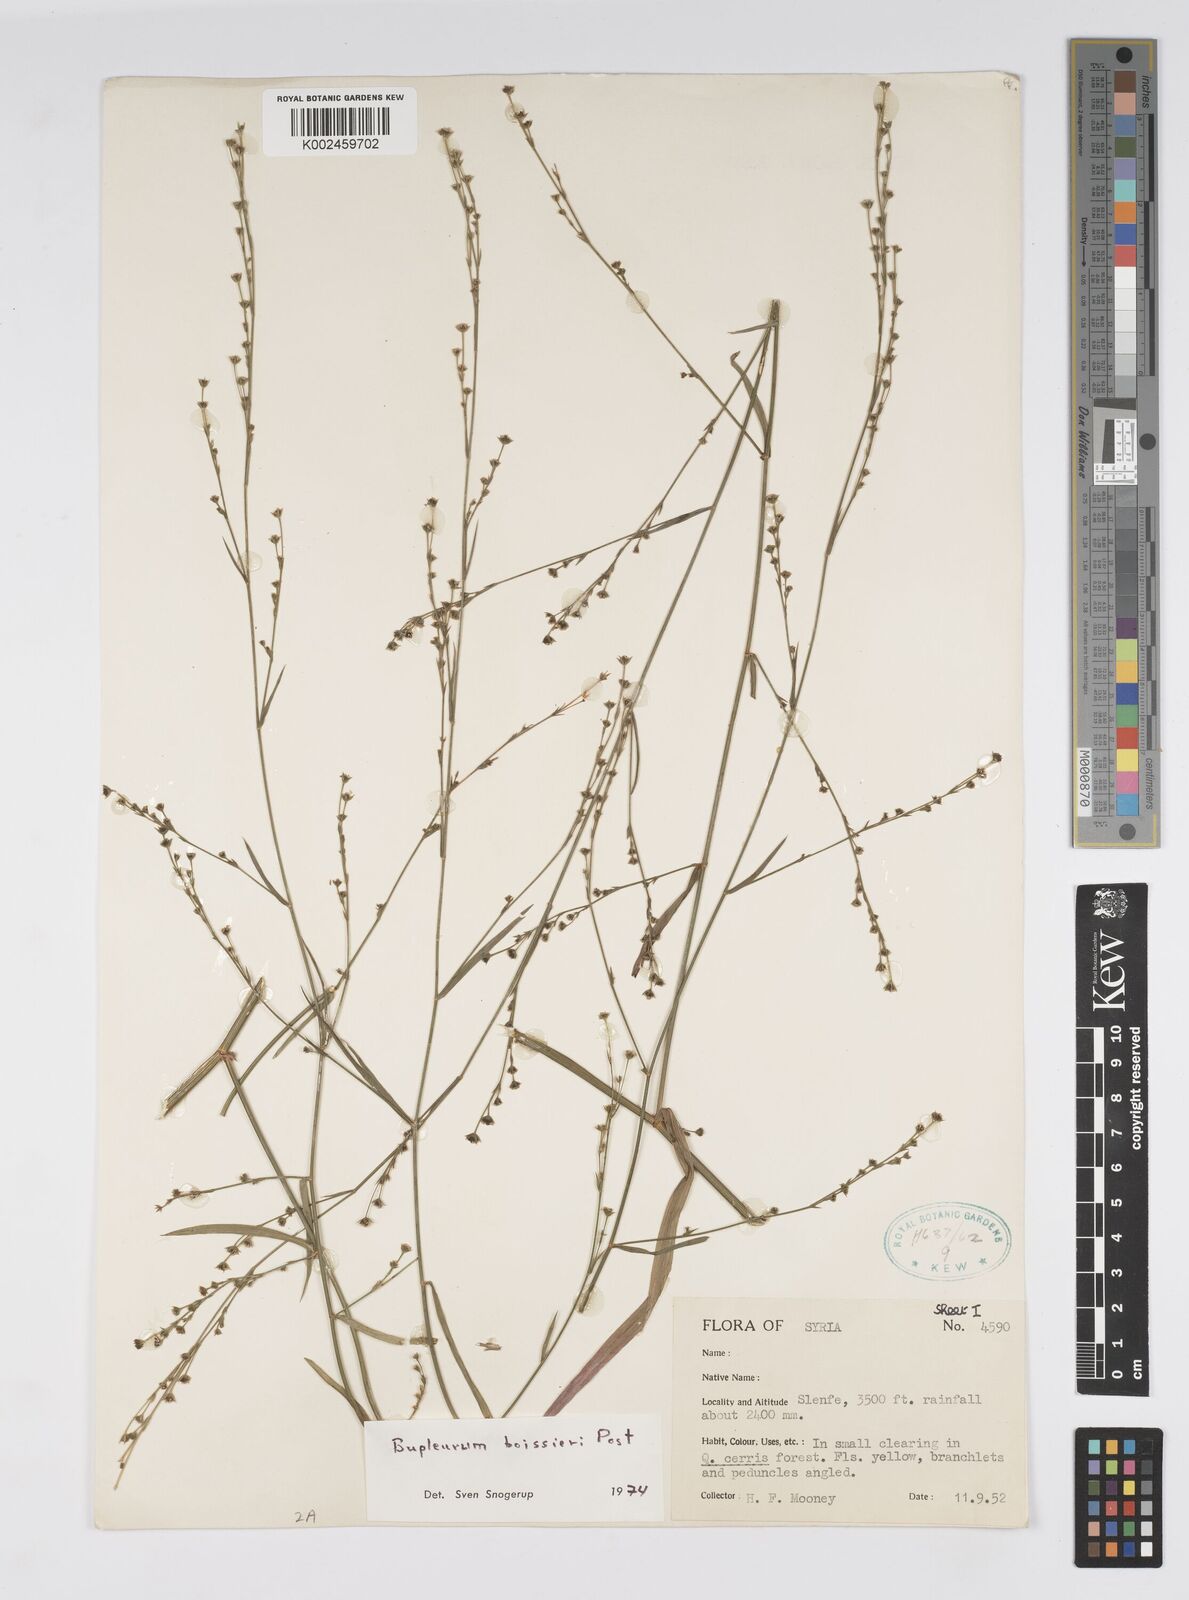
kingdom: Plantae
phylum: Tracheophyta
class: Magnoliopsida
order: Apiales
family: Apiaceae
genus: Bupleurum
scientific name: Bupleurum boissieri
